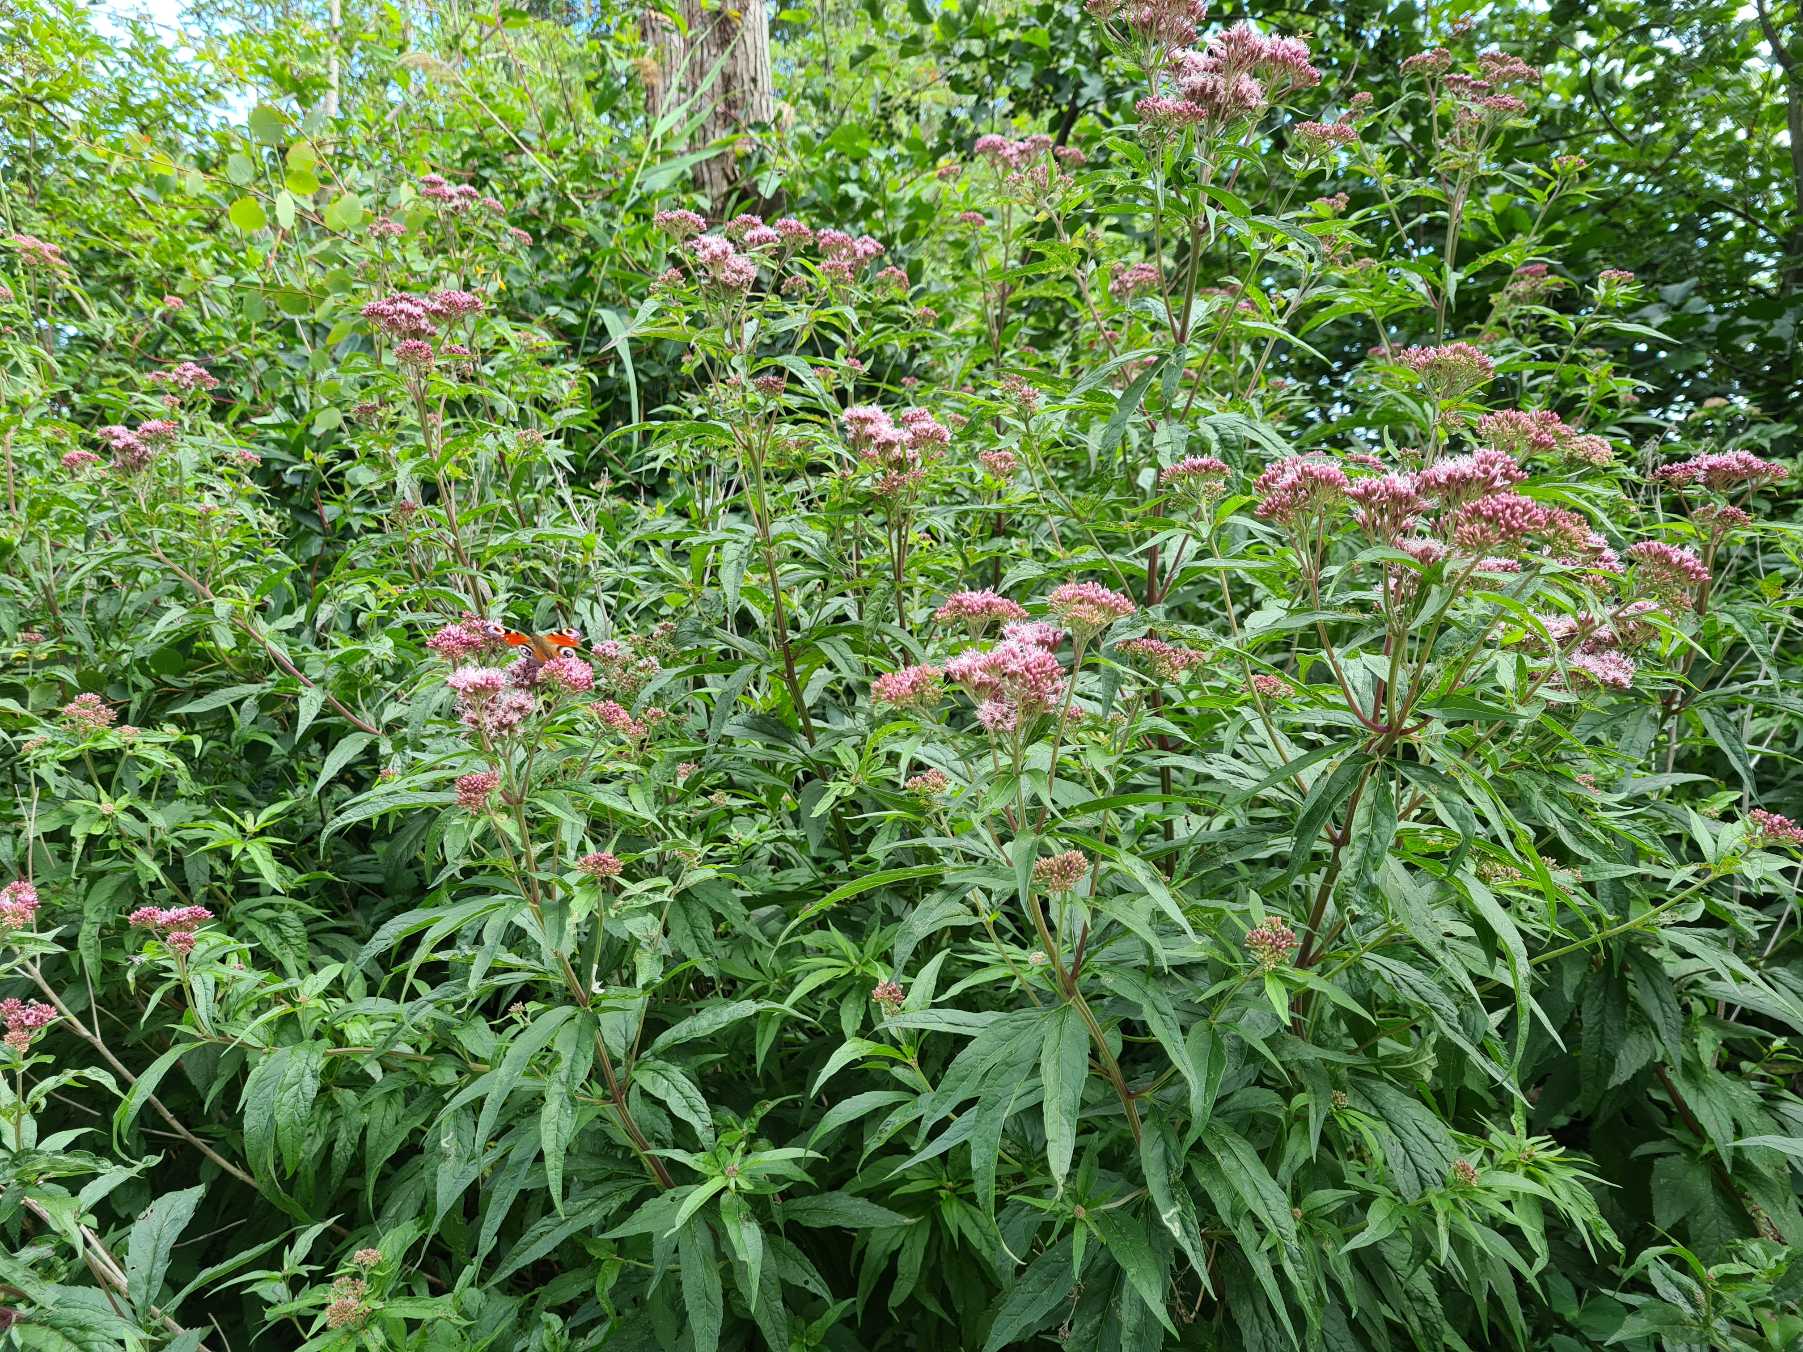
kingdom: Plantae
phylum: Tracheophyta
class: Magnoliopsida
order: Asterales
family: Asteraceae
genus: Eupatorium
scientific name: Eupatorium cannabinum
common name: Hjortetrøst
